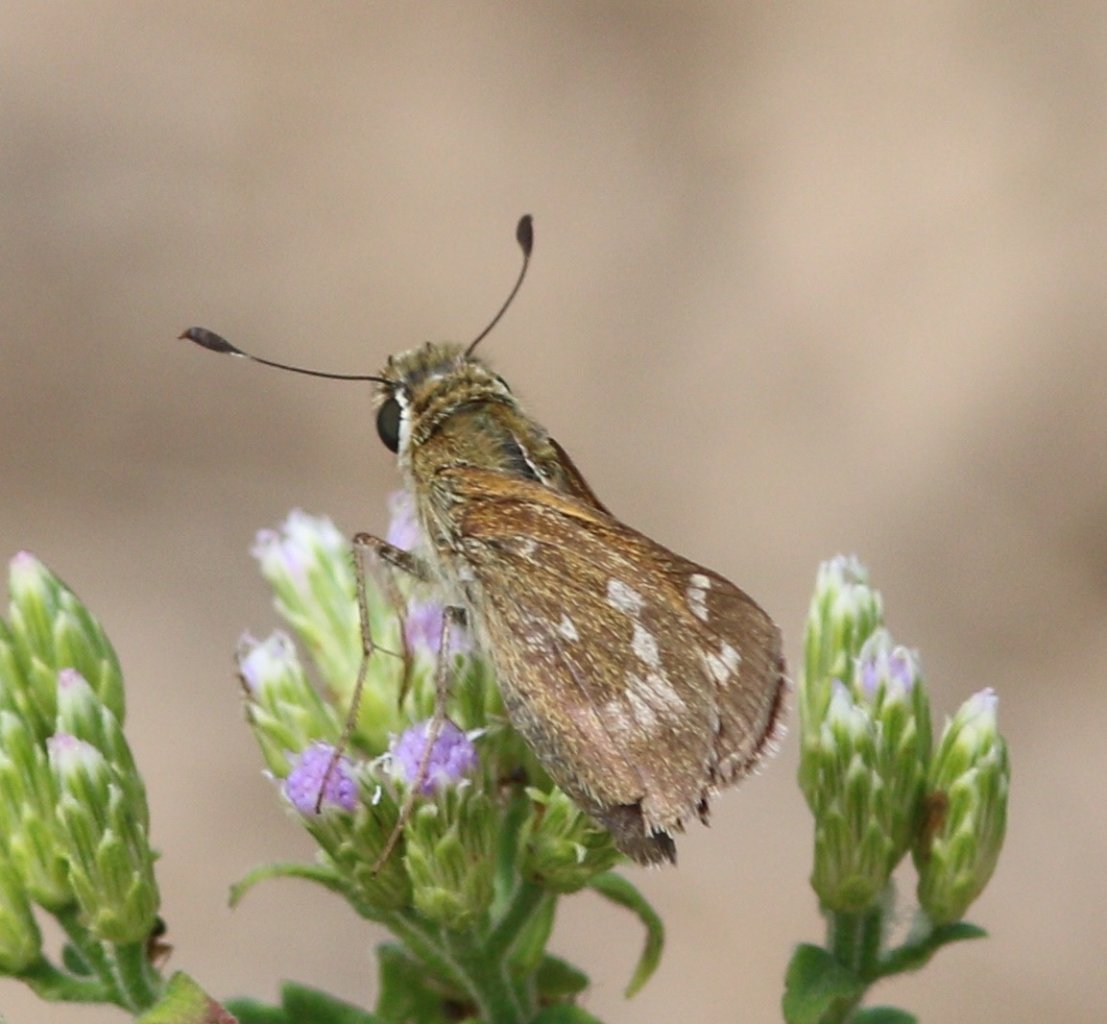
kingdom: Animalia
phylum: Arthropoda
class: Insecta
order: Lepidoptera
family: Hesperiidae
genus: Atalopedes
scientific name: Atalopedes campestris
